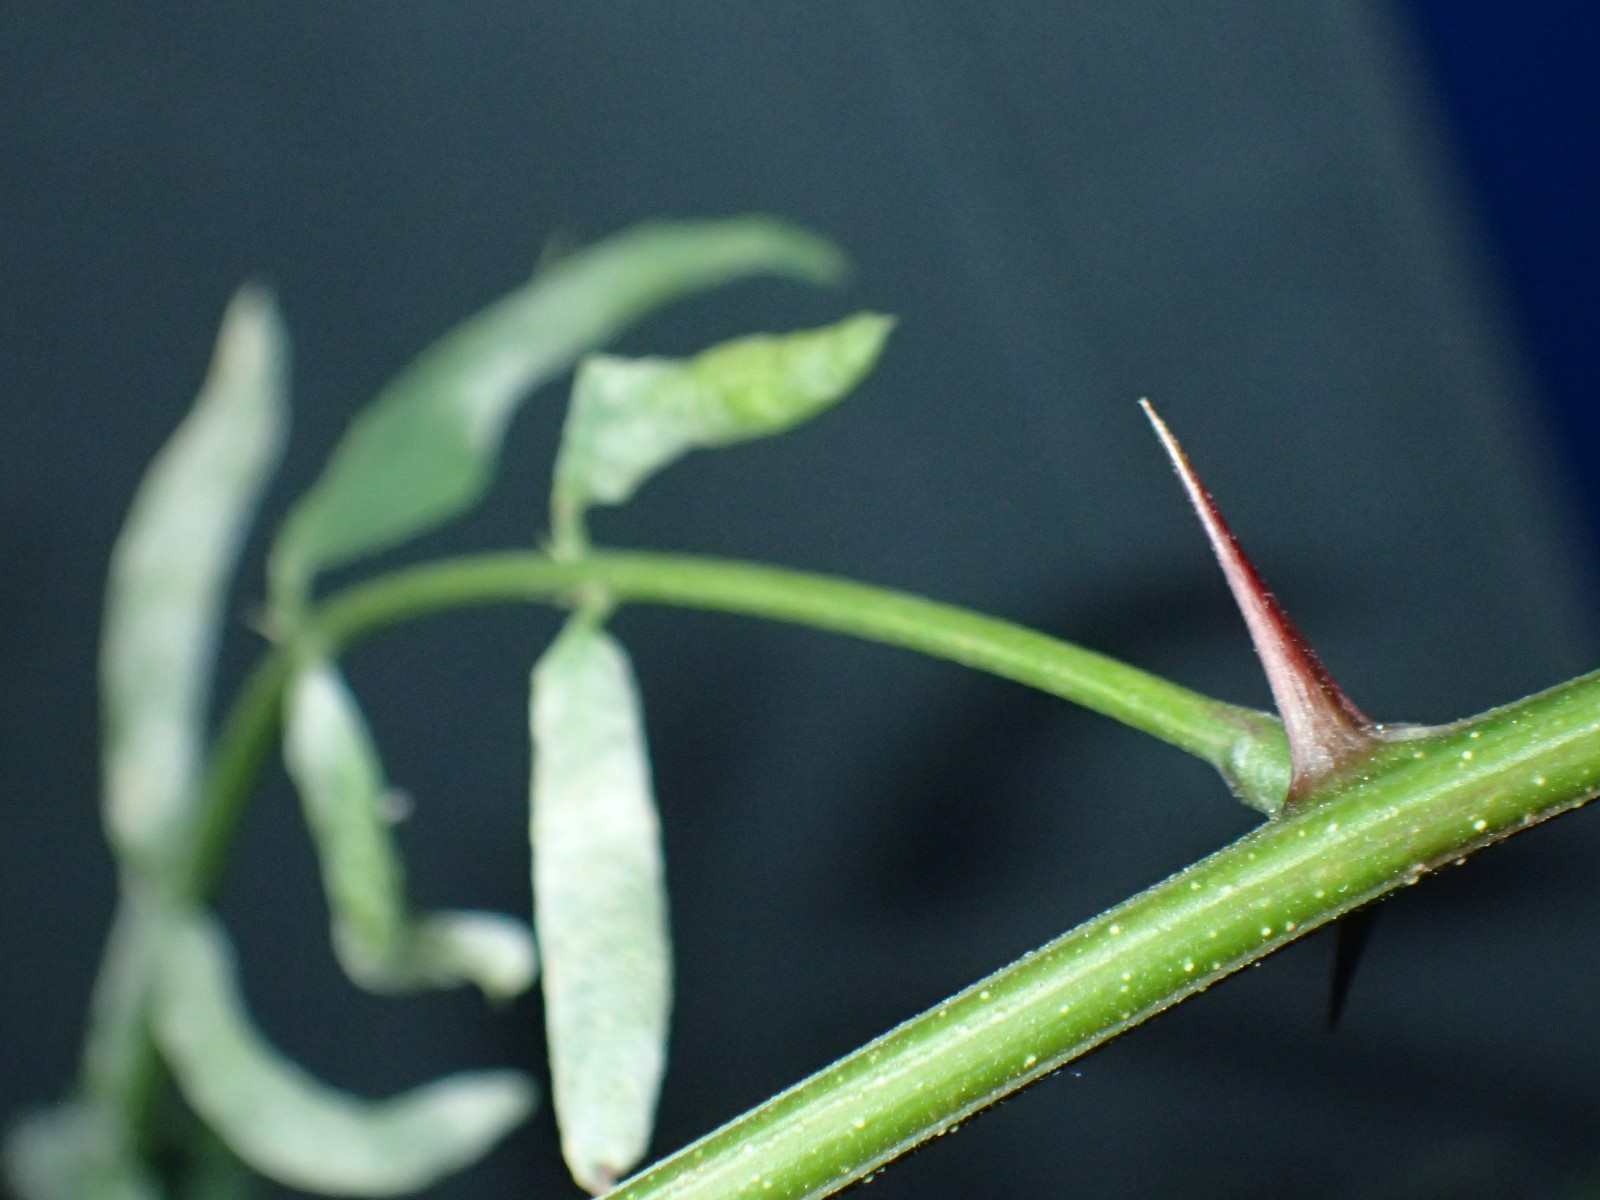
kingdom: Fungi
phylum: Ascomycota
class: Leotiomycetes
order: Helotiales
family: Erysiphaceae
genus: Erysiphe
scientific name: Erysiphe
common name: meldug
